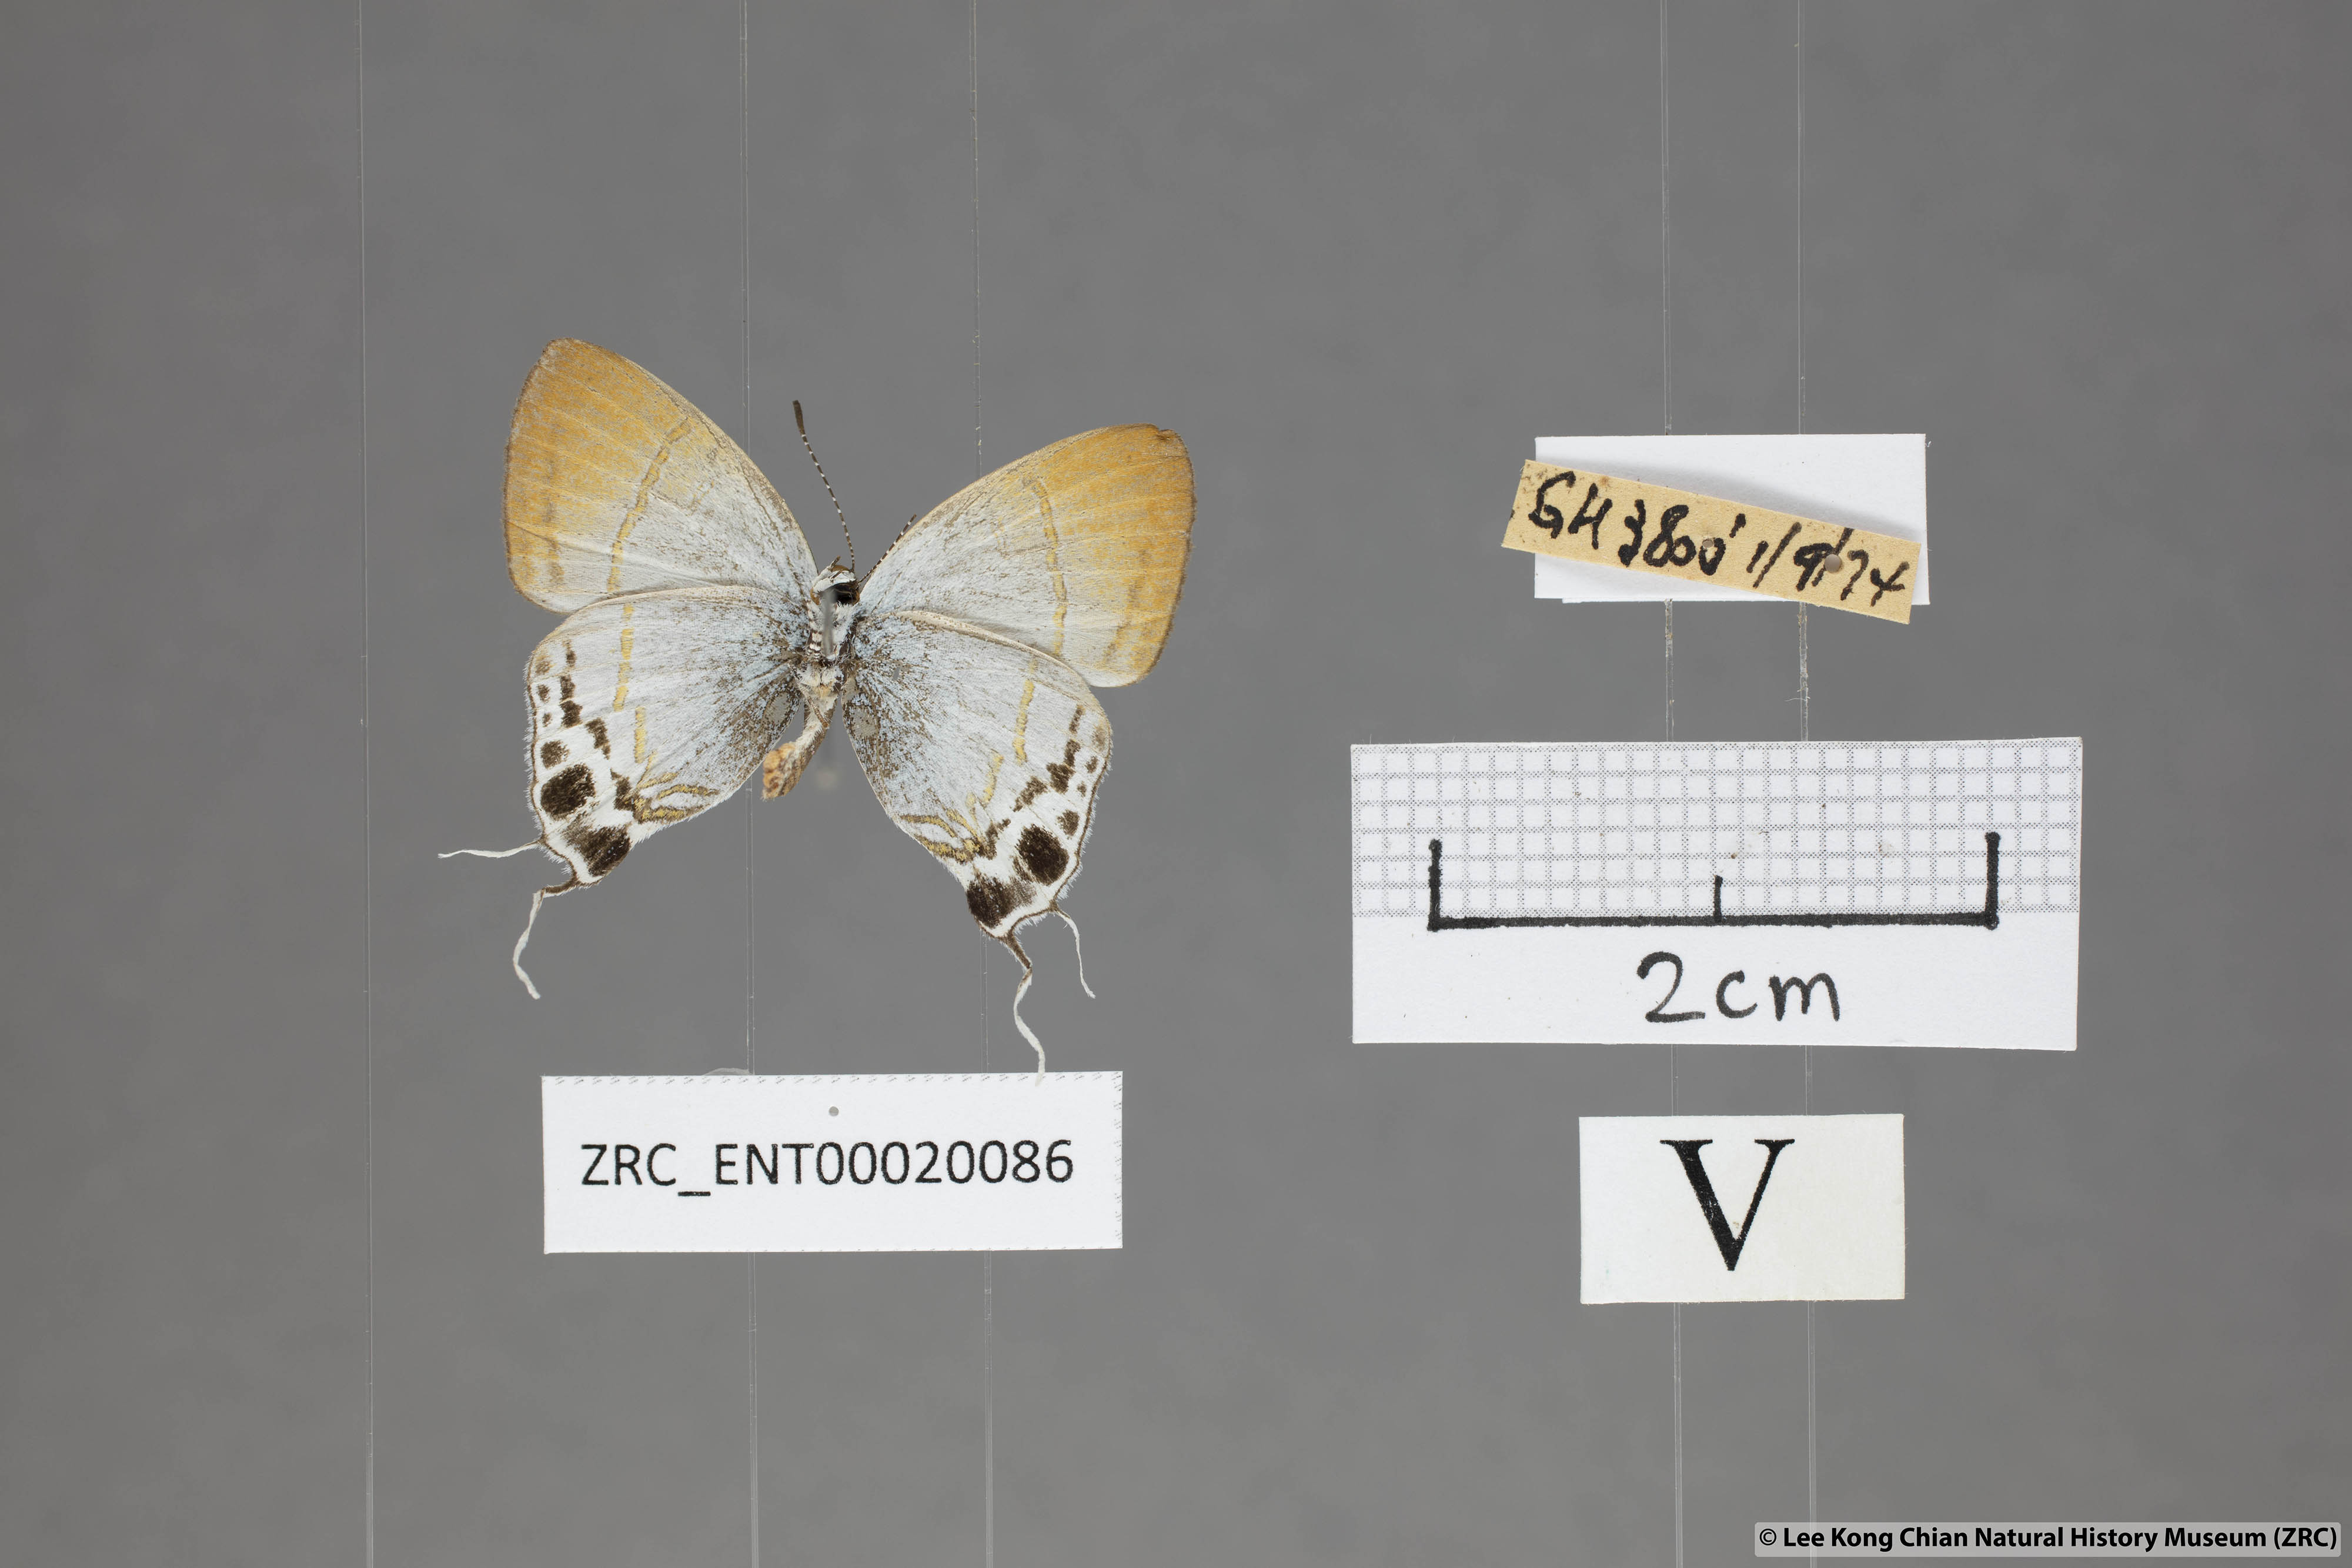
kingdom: Animalia
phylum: Arthropoda
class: Insecta
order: Lepidoptera
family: Lycaenidae
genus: Hypolycaena
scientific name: Hypolycaena amabilis
